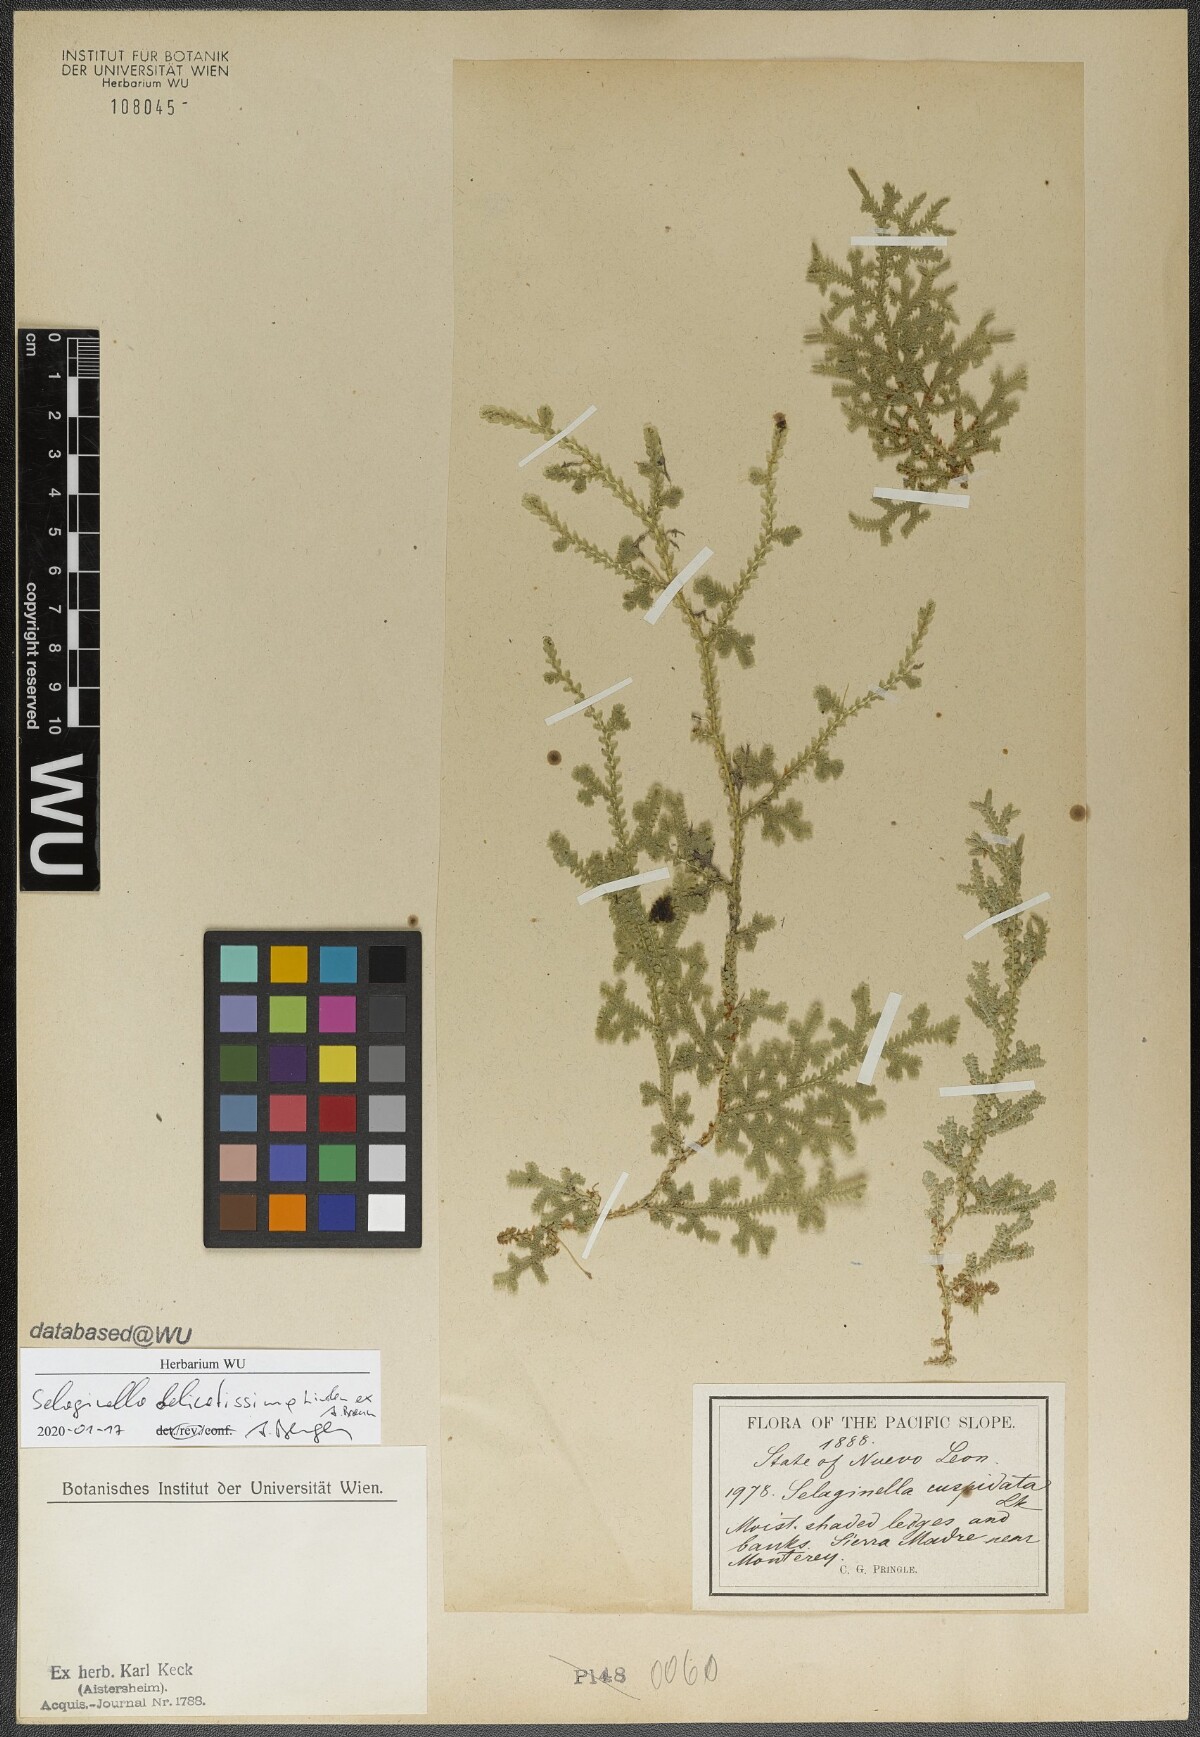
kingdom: Plantae
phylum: Tracheophyta
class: Lycopodiopsida
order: Selaginellales
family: Selaginellaceae
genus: Selaginella
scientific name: Selaginella delicatissima
